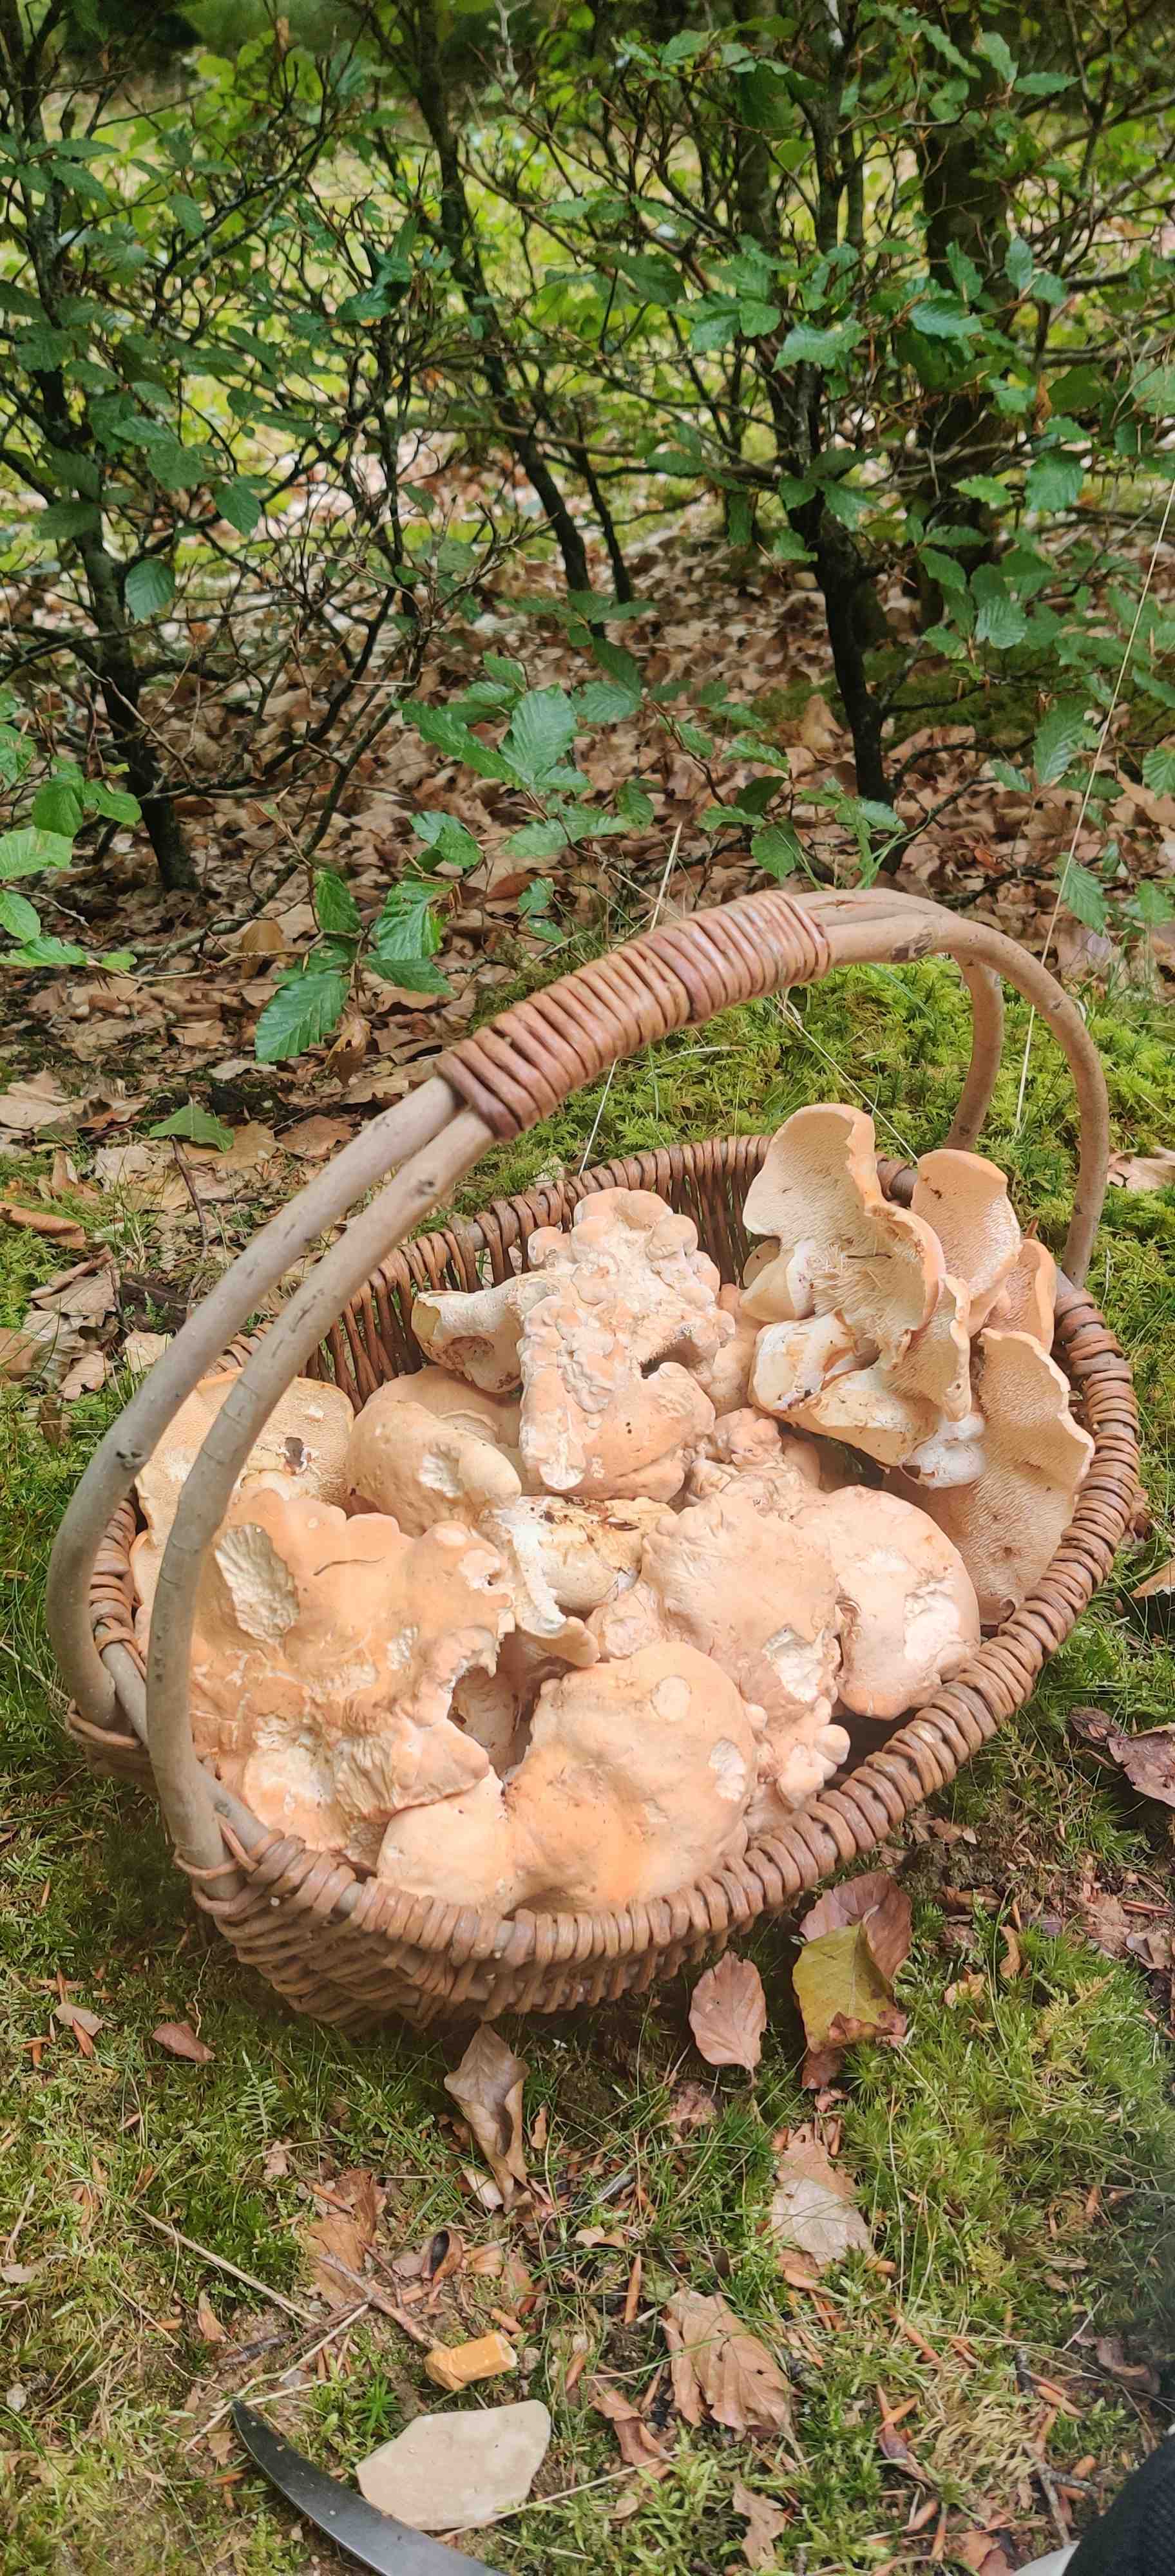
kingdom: Fungi
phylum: Basidiomycota
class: Agaricomycetes
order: Cantharellales
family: Hydnaceae
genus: Hydnum
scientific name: Hydnum
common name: pigsvamp
